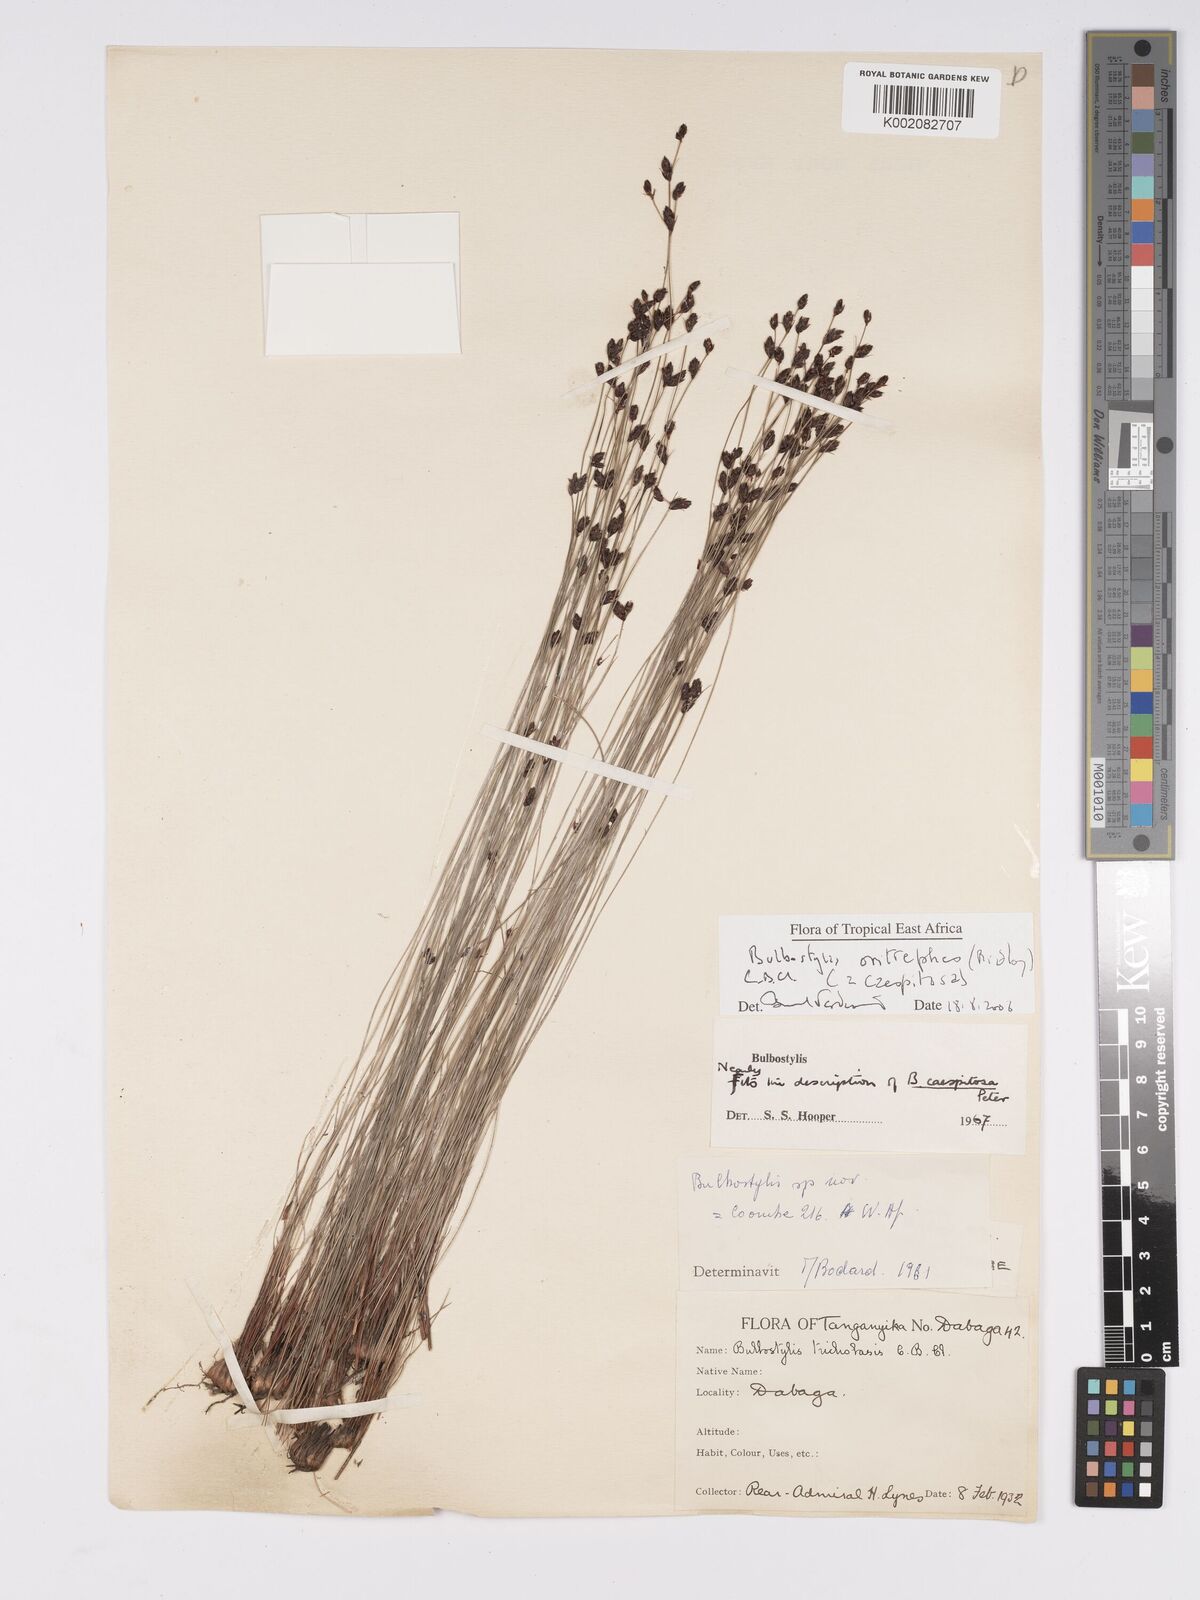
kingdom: Plantae
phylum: Tracheophyta
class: Liliopsida
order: Poales
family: Cyperaceae
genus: Bulbostylis
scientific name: Bulbostylis oritrephes
